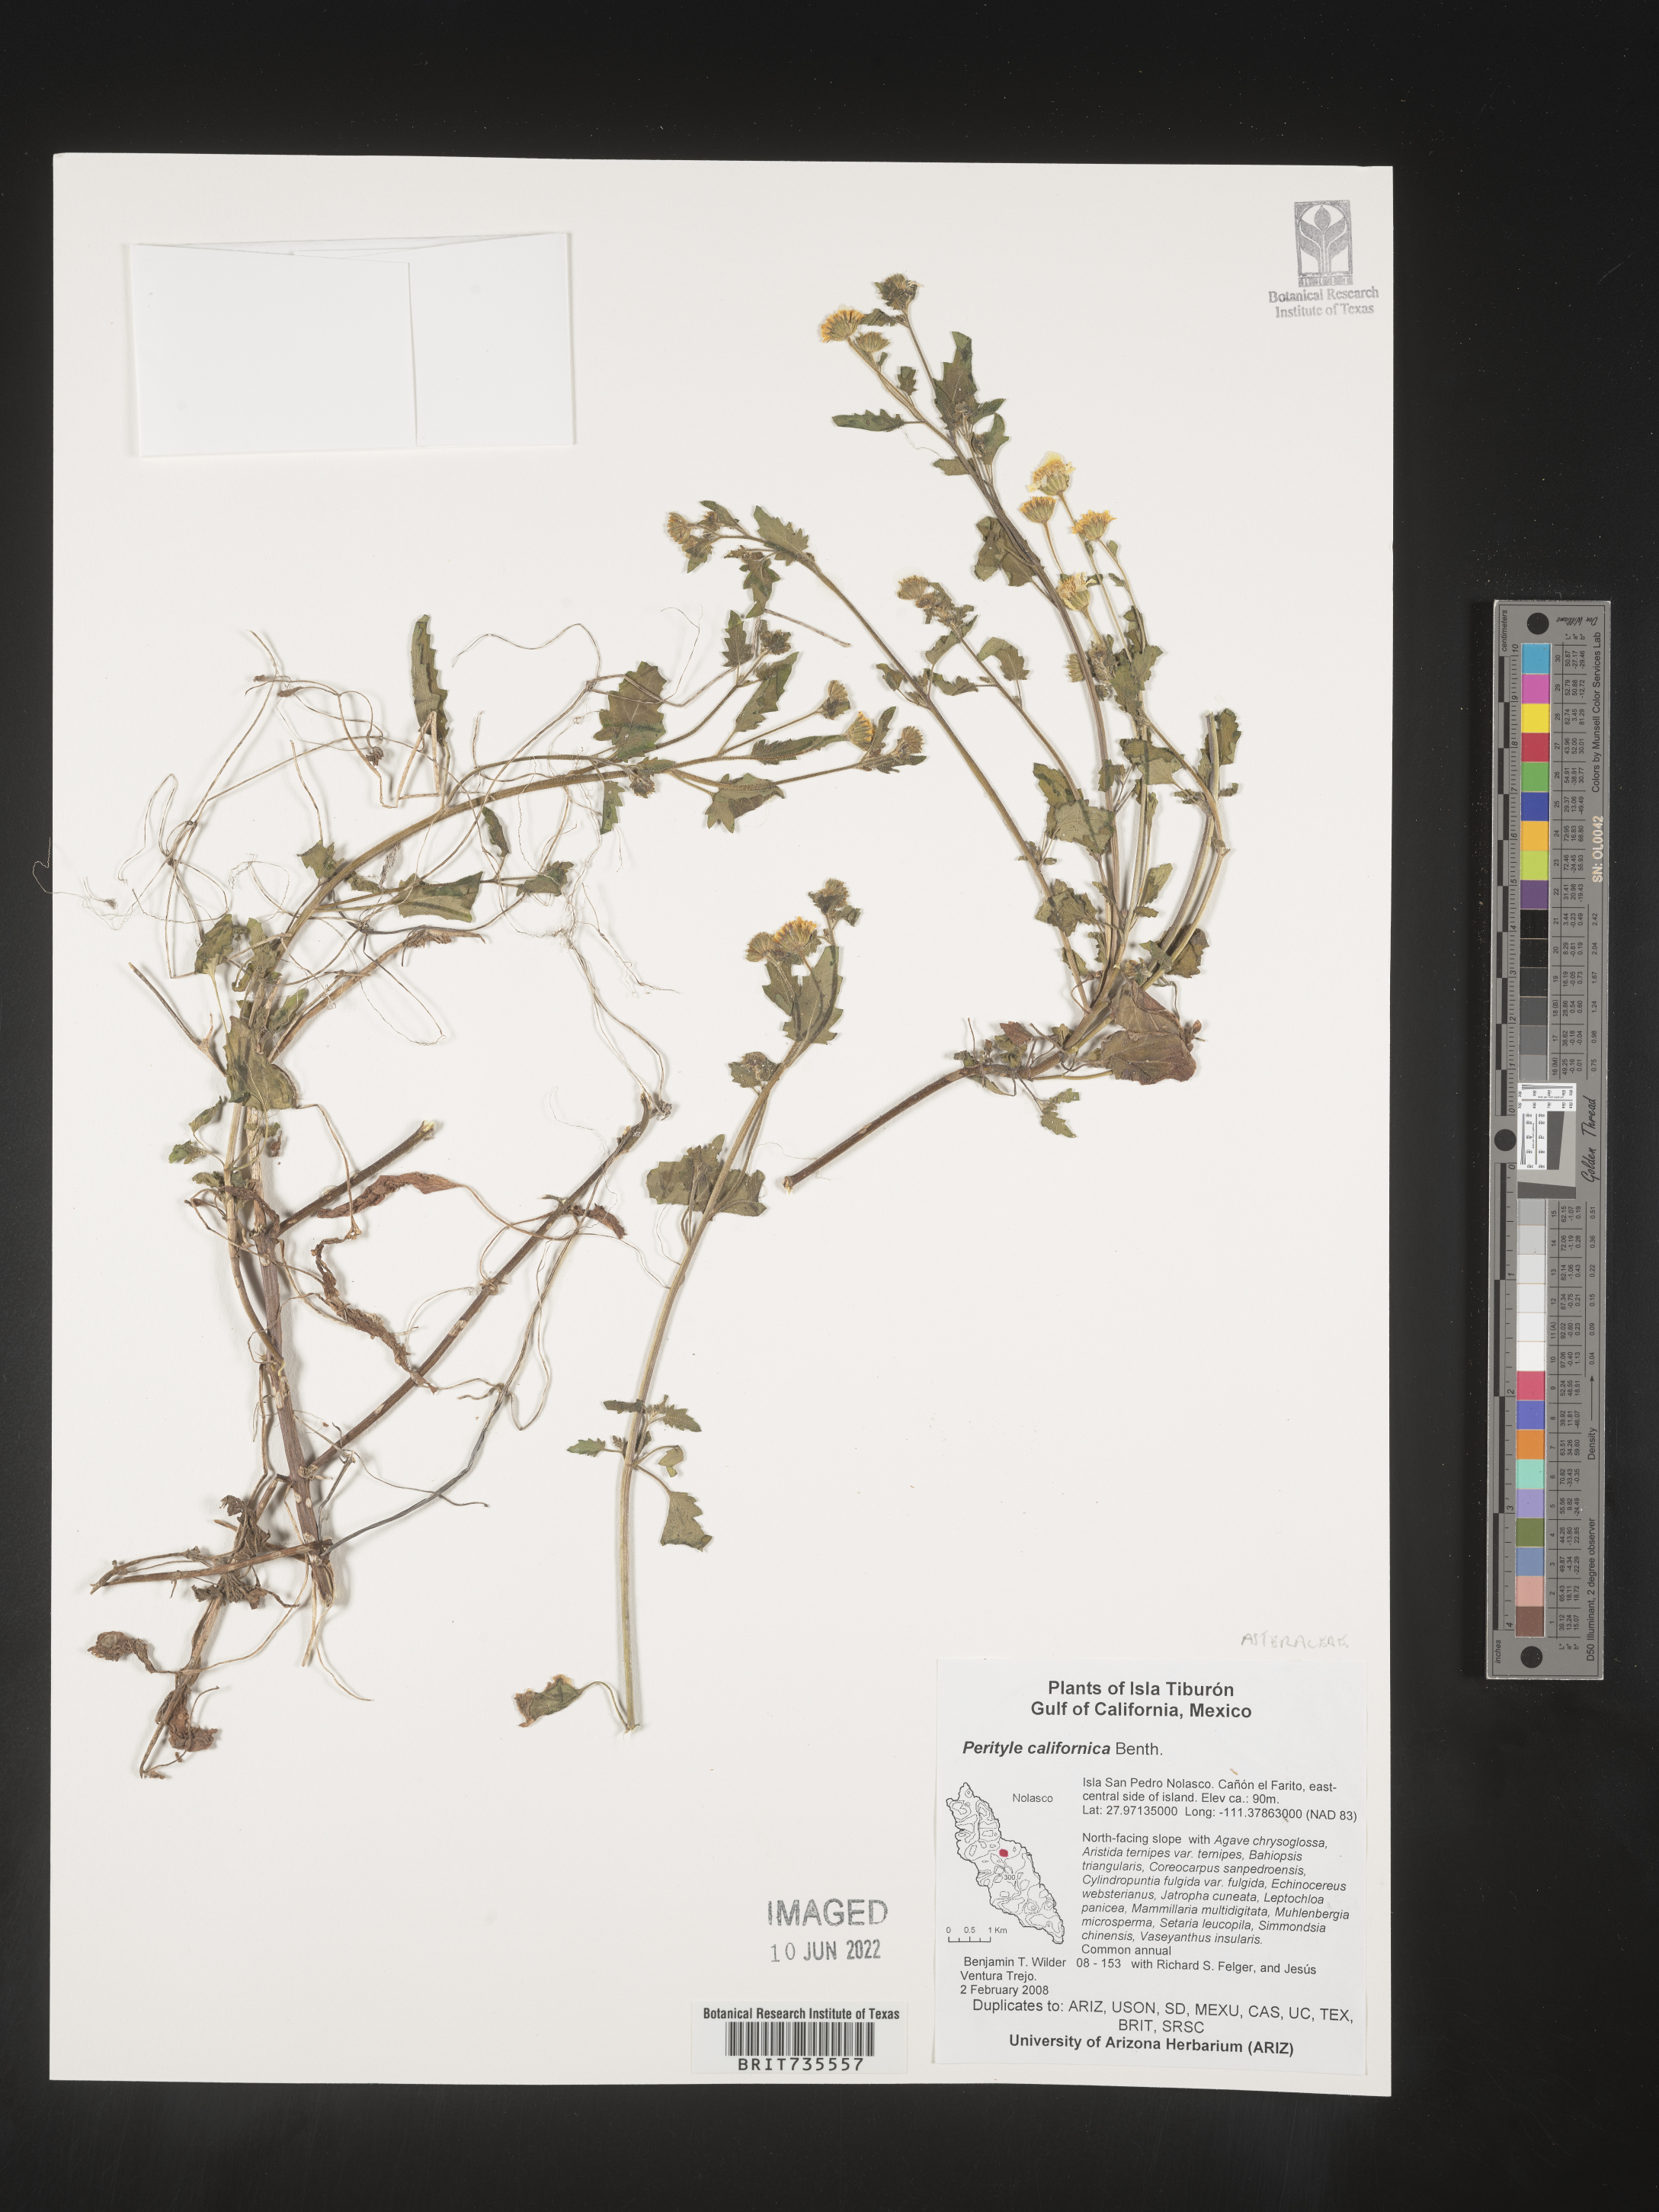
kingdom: Plantae
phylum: Tracheophyta
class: Magnoliopsida
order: Asterales
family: Asteraceae
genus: Perityle
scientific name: Perityle
